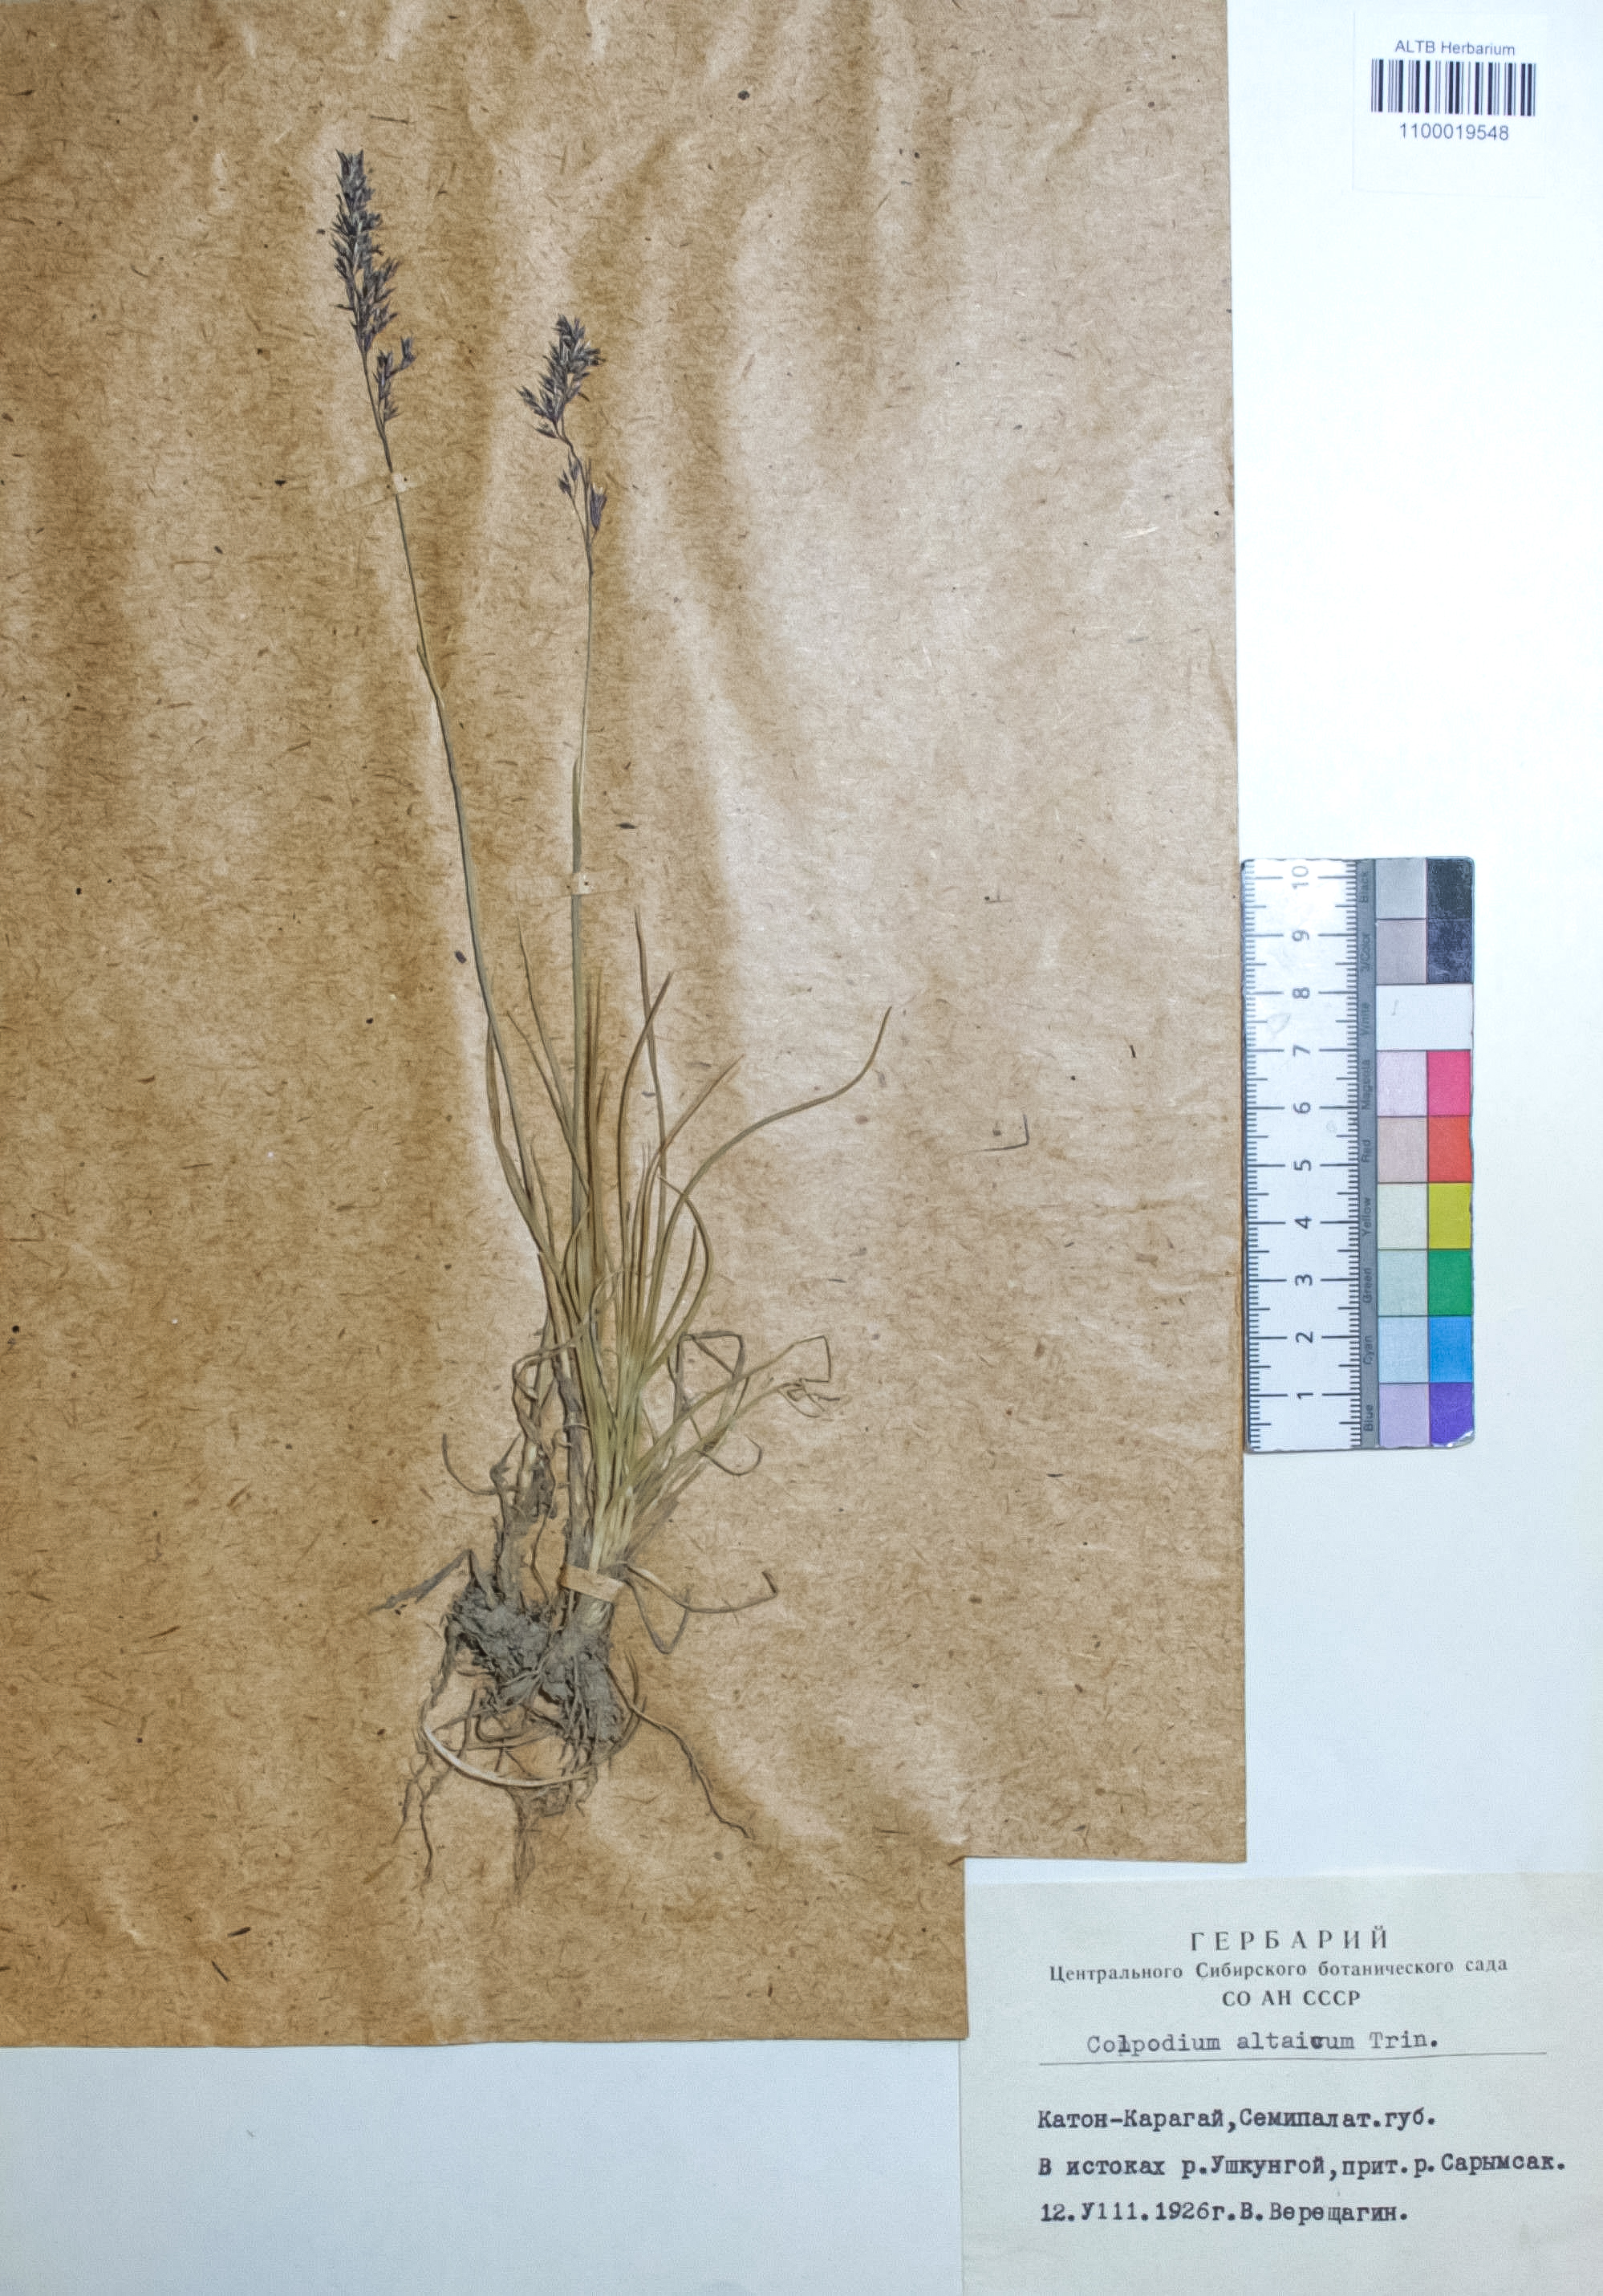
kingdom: Plantae
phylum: Tracheophyta
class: Liliopsida
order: Poales
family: Poaceae
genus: Paracolpodium
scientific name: Paracolpodium altaicum
